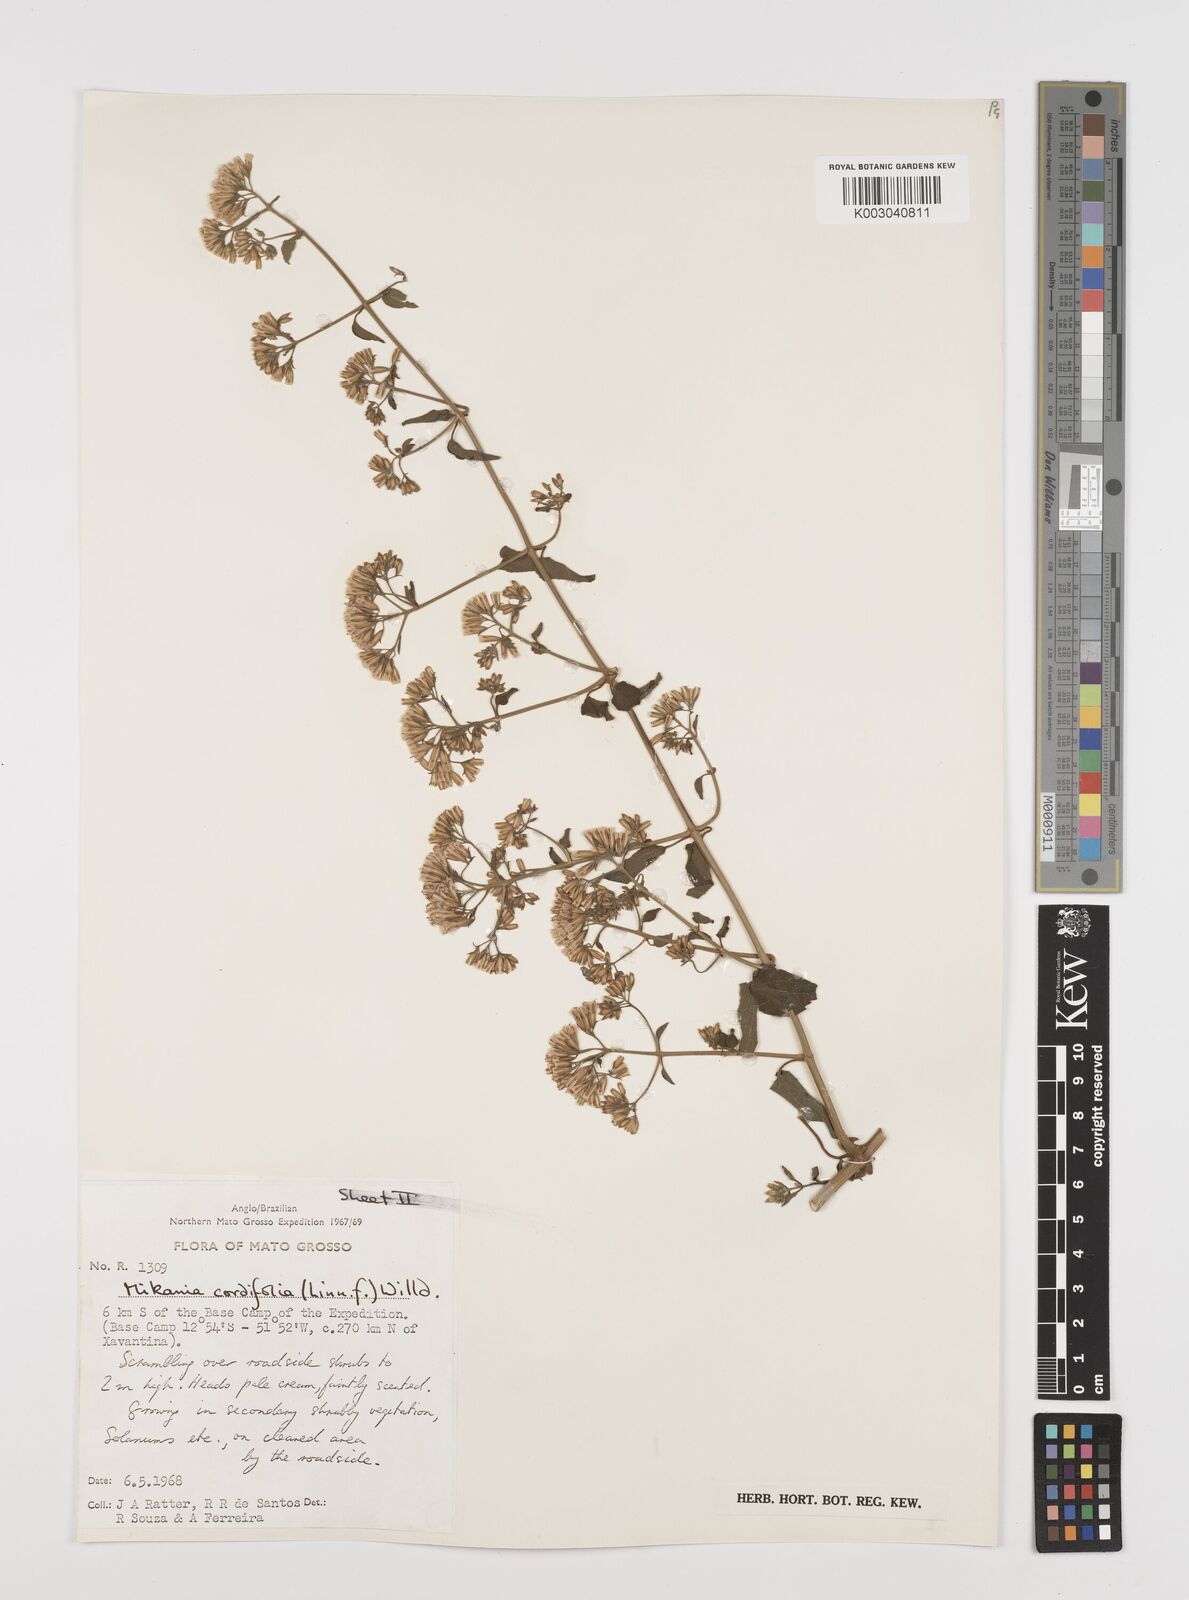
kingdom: Plantae
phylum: Tracheophyta
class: Magnoliopsida
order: Asterales
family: Asteraceae
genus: Mikania
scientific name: Mikania cordifolia
